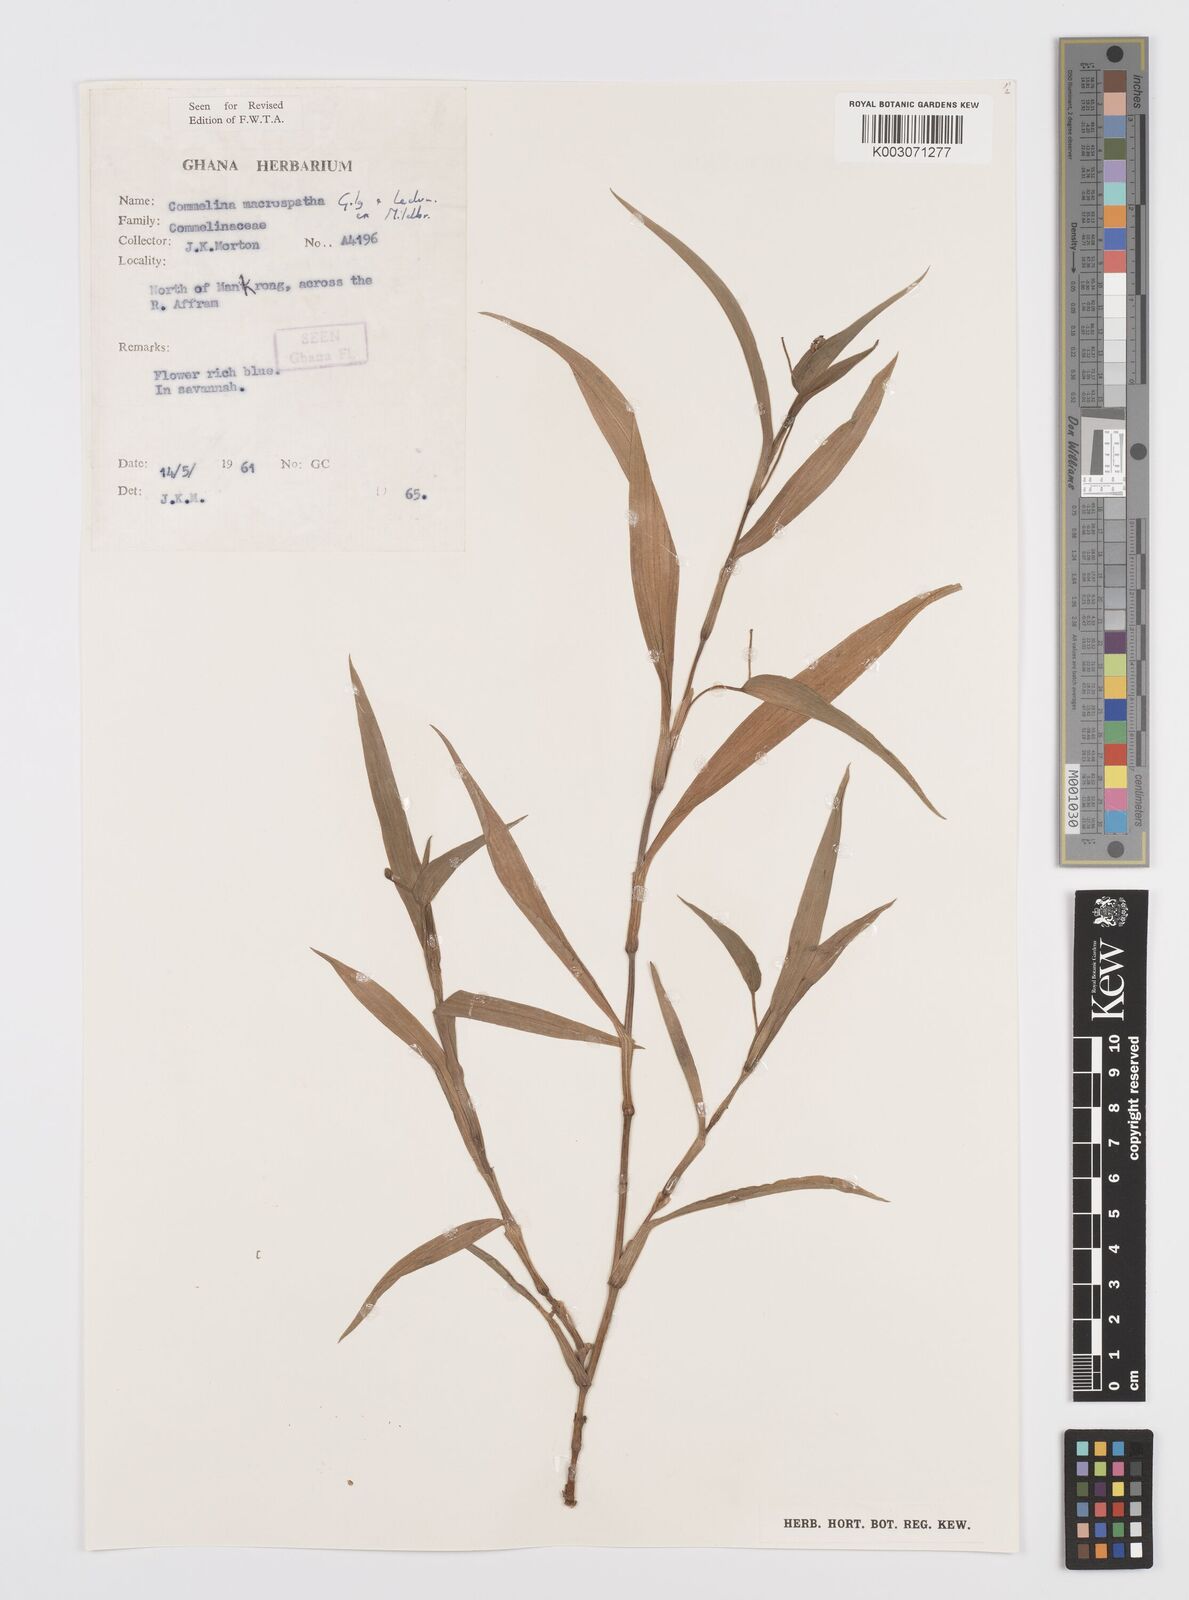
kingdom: Plantae
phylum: Tracheophyta
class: Liliopsida
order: Commelinales
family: Commelinaceae
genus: Commelina
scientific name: Commelina macrospatha
